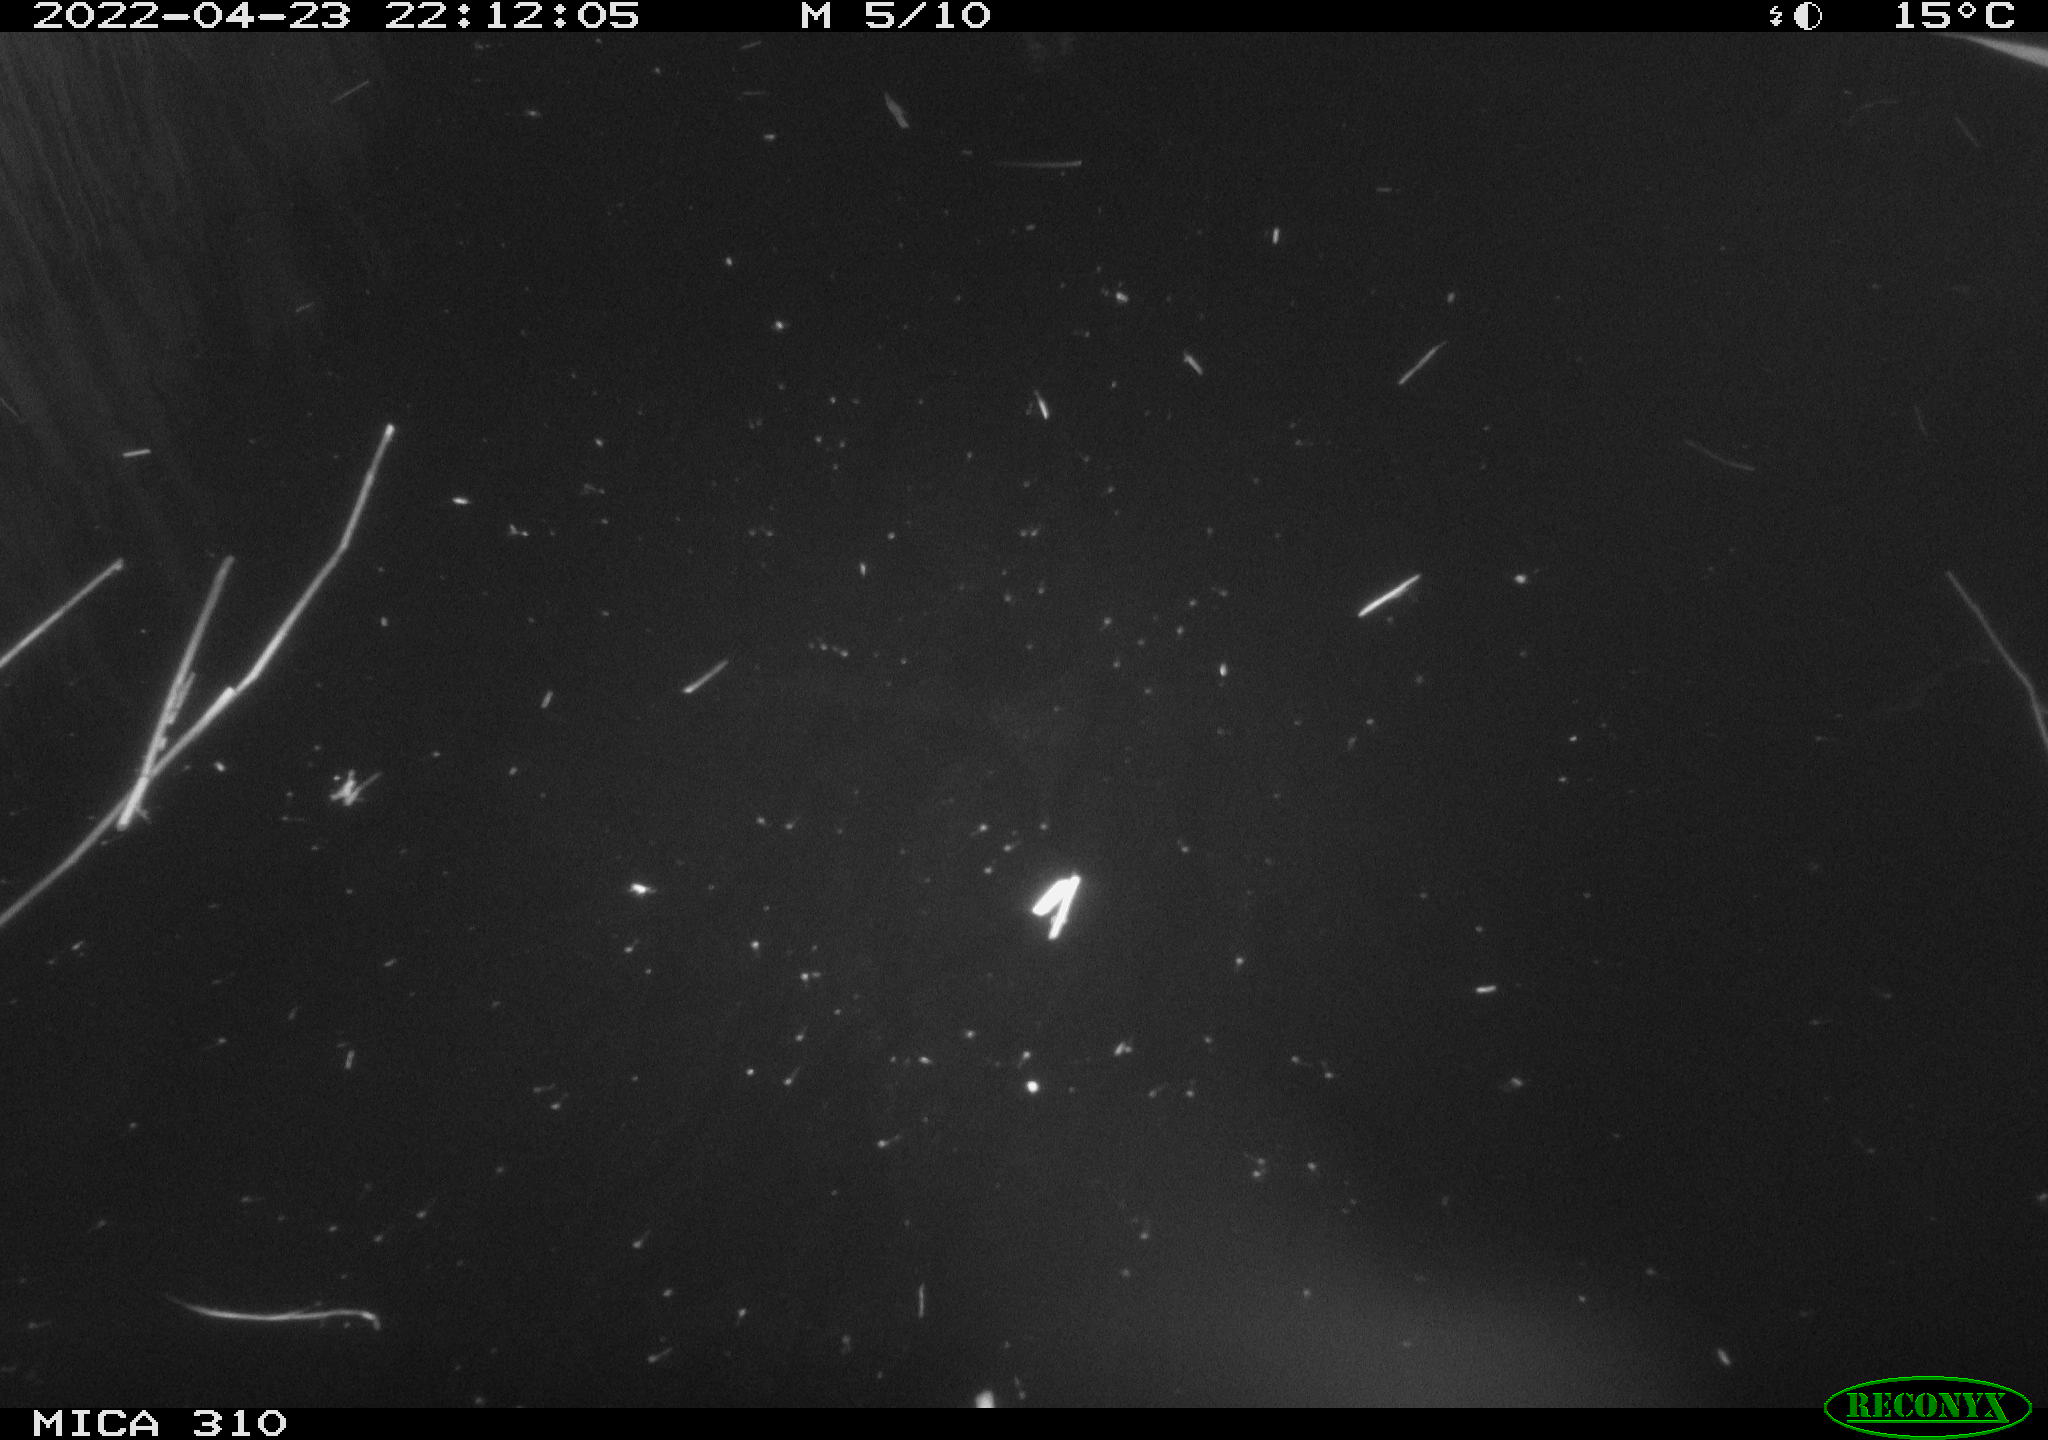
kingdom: Animalia
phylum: Chordata
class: Aves
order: Anseriformes
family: Anatidae
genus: Anas
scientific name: Anas platyrhynchos
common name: Mallard
